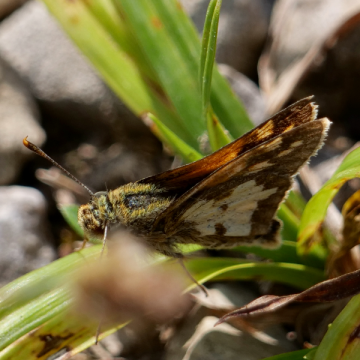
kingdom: Animalia
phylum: Arthropoda
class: Insecta
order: Lepidoptera
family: Hesperiidae
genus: Polites
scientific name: Polites coras
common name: Peck's Skipper
